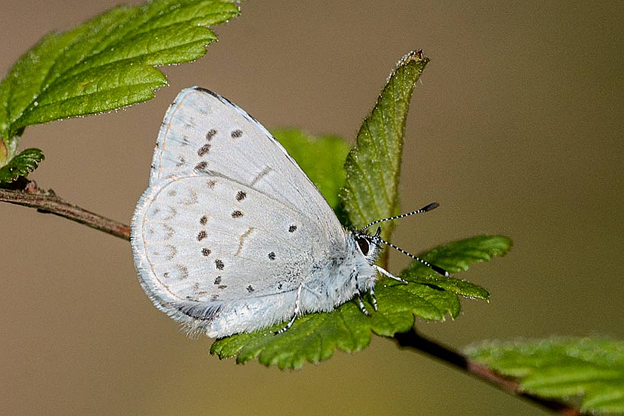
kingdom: Animalia
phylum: Arthropoda
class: Insecta
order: Lepidoptera
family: Lycaenidae
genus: Celastrina
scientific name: Celastrina ladon
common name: Echo Azure
